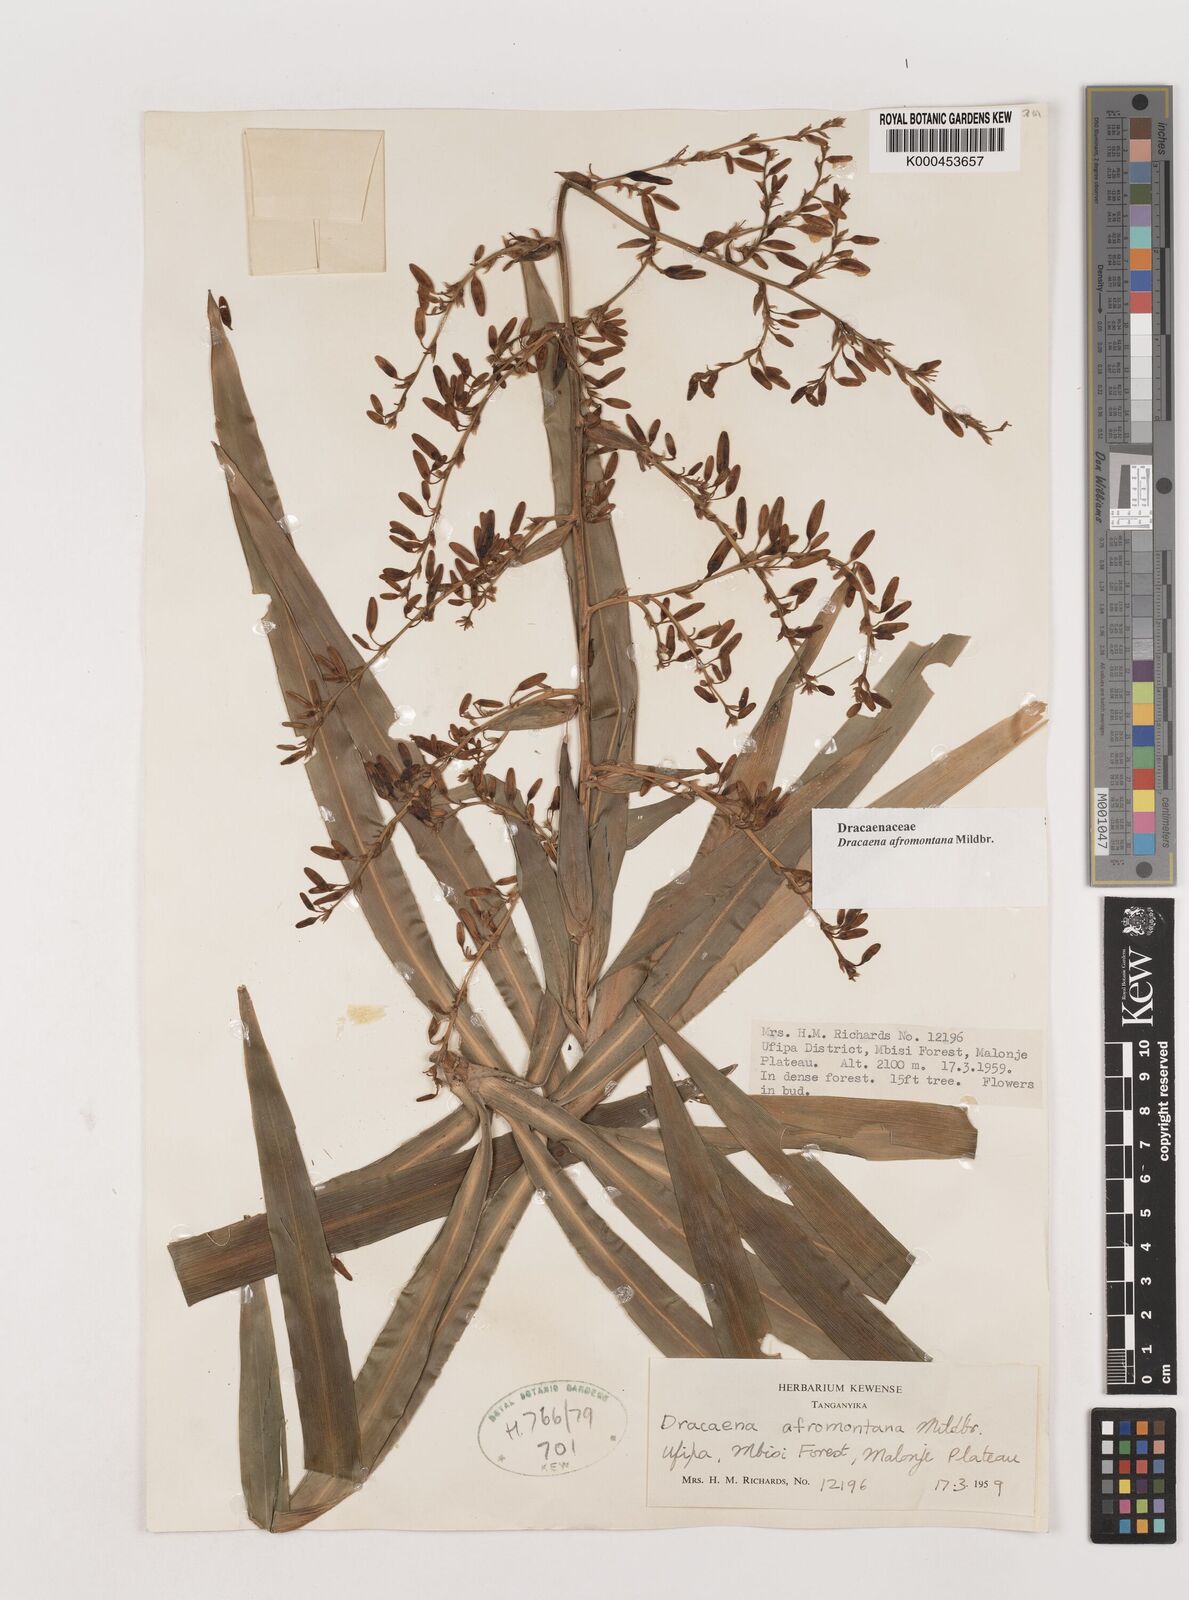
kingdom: Plantae
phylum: Tracheophyta
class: Liliopsida
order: Asparagales
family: Asparagaceae
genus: Dracaena
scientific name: Dracaena afromontana
